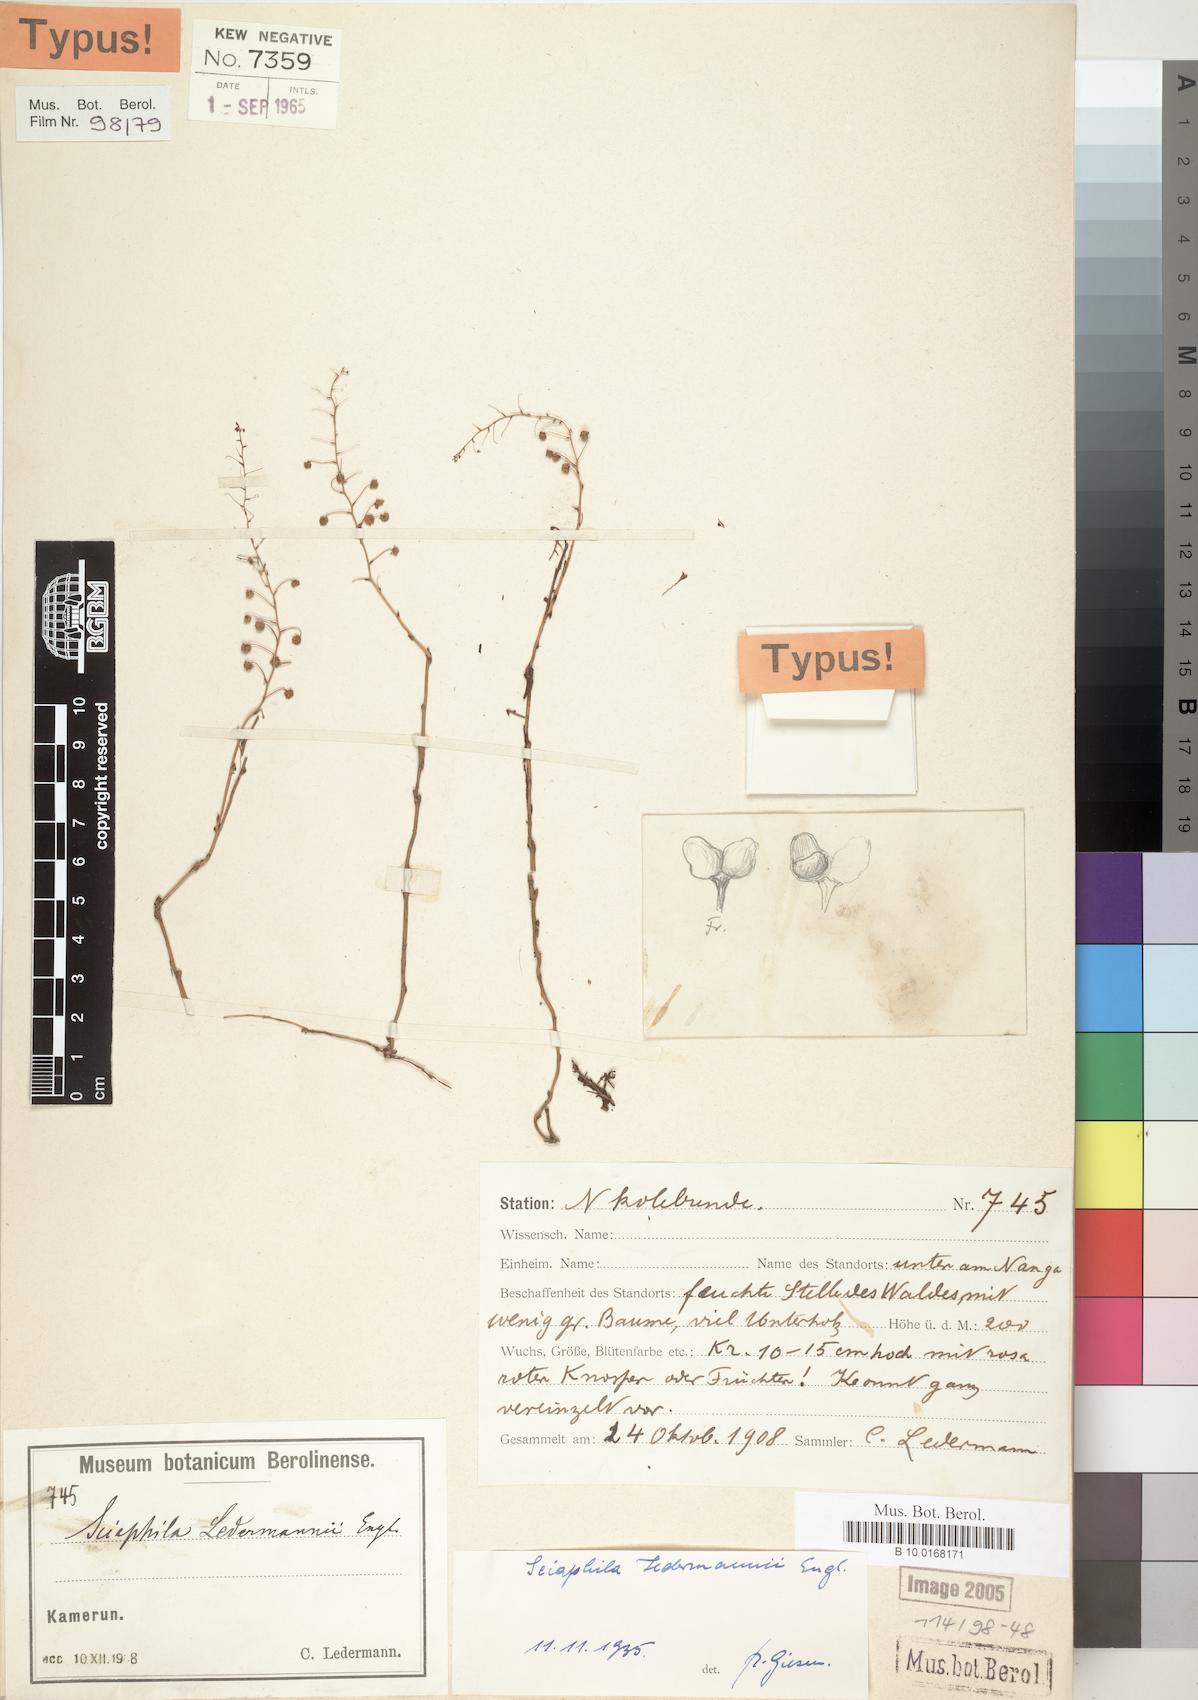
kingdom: Plantae
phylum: Tracheophyta
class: Liliopsida
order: Pandanales
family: Triuridaceae
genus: Sciaphila
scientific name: Sciaphila ledermannii
